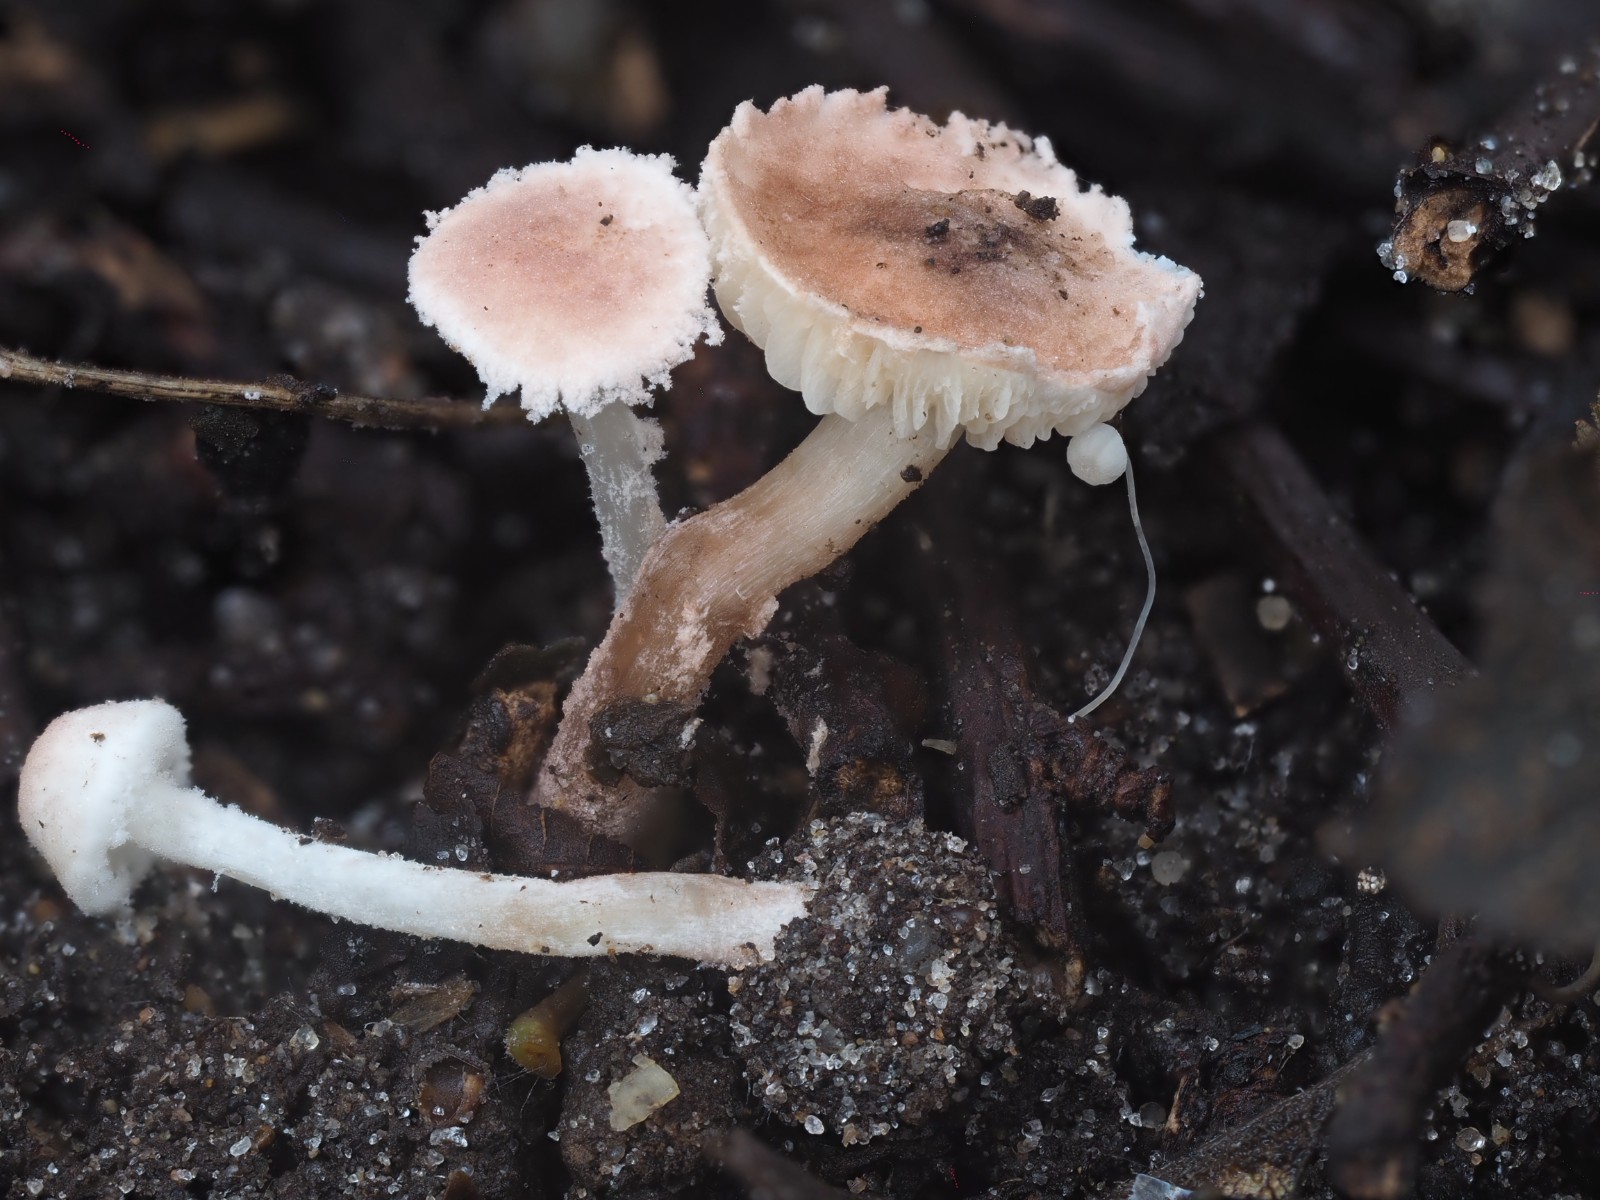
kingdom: Fungi
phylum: Basidiomycota
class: Agaricomycetes
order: Agaricales
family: Agaricaceae
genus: Cystolepiota
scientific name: Cystolepiota seminuda
